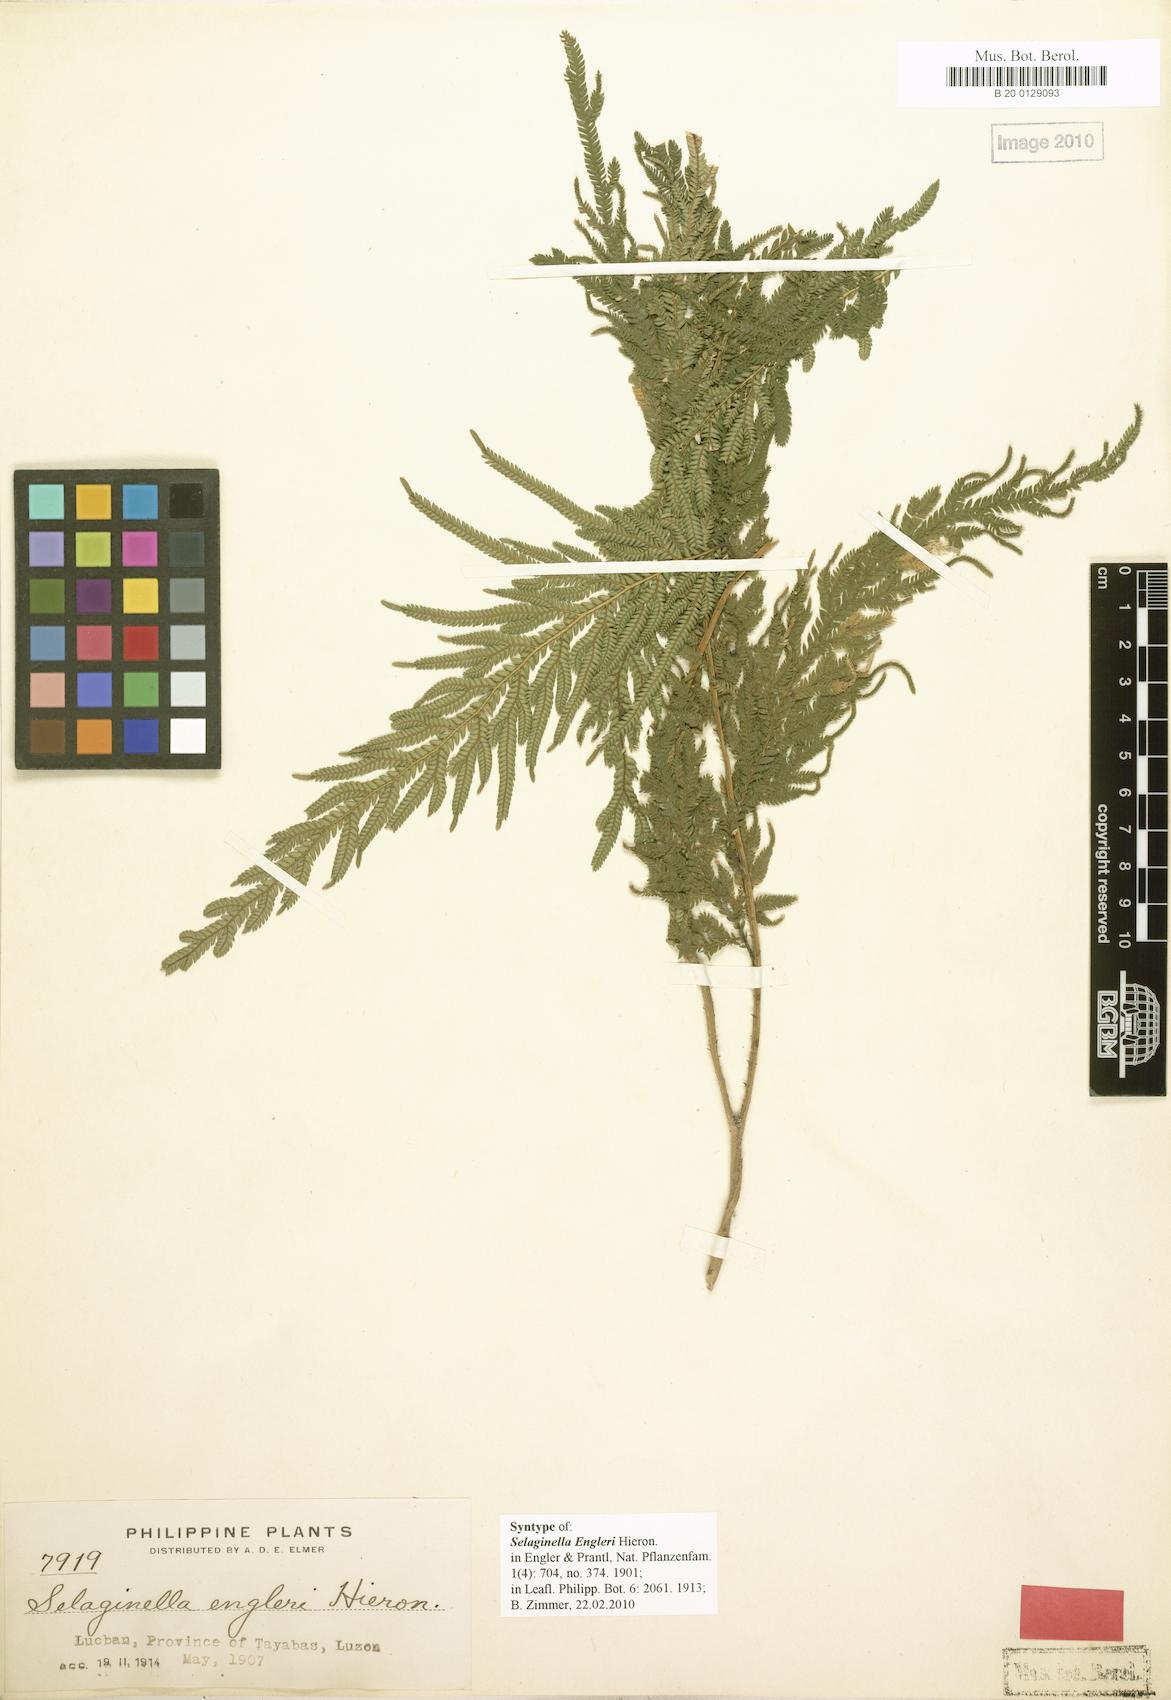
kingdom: Plantae
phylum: Tracheophyta
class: Lycopodiopsida
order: Selaginellales
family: Selaginellaceae
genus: Selaginella
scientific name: Selaginella engleri
